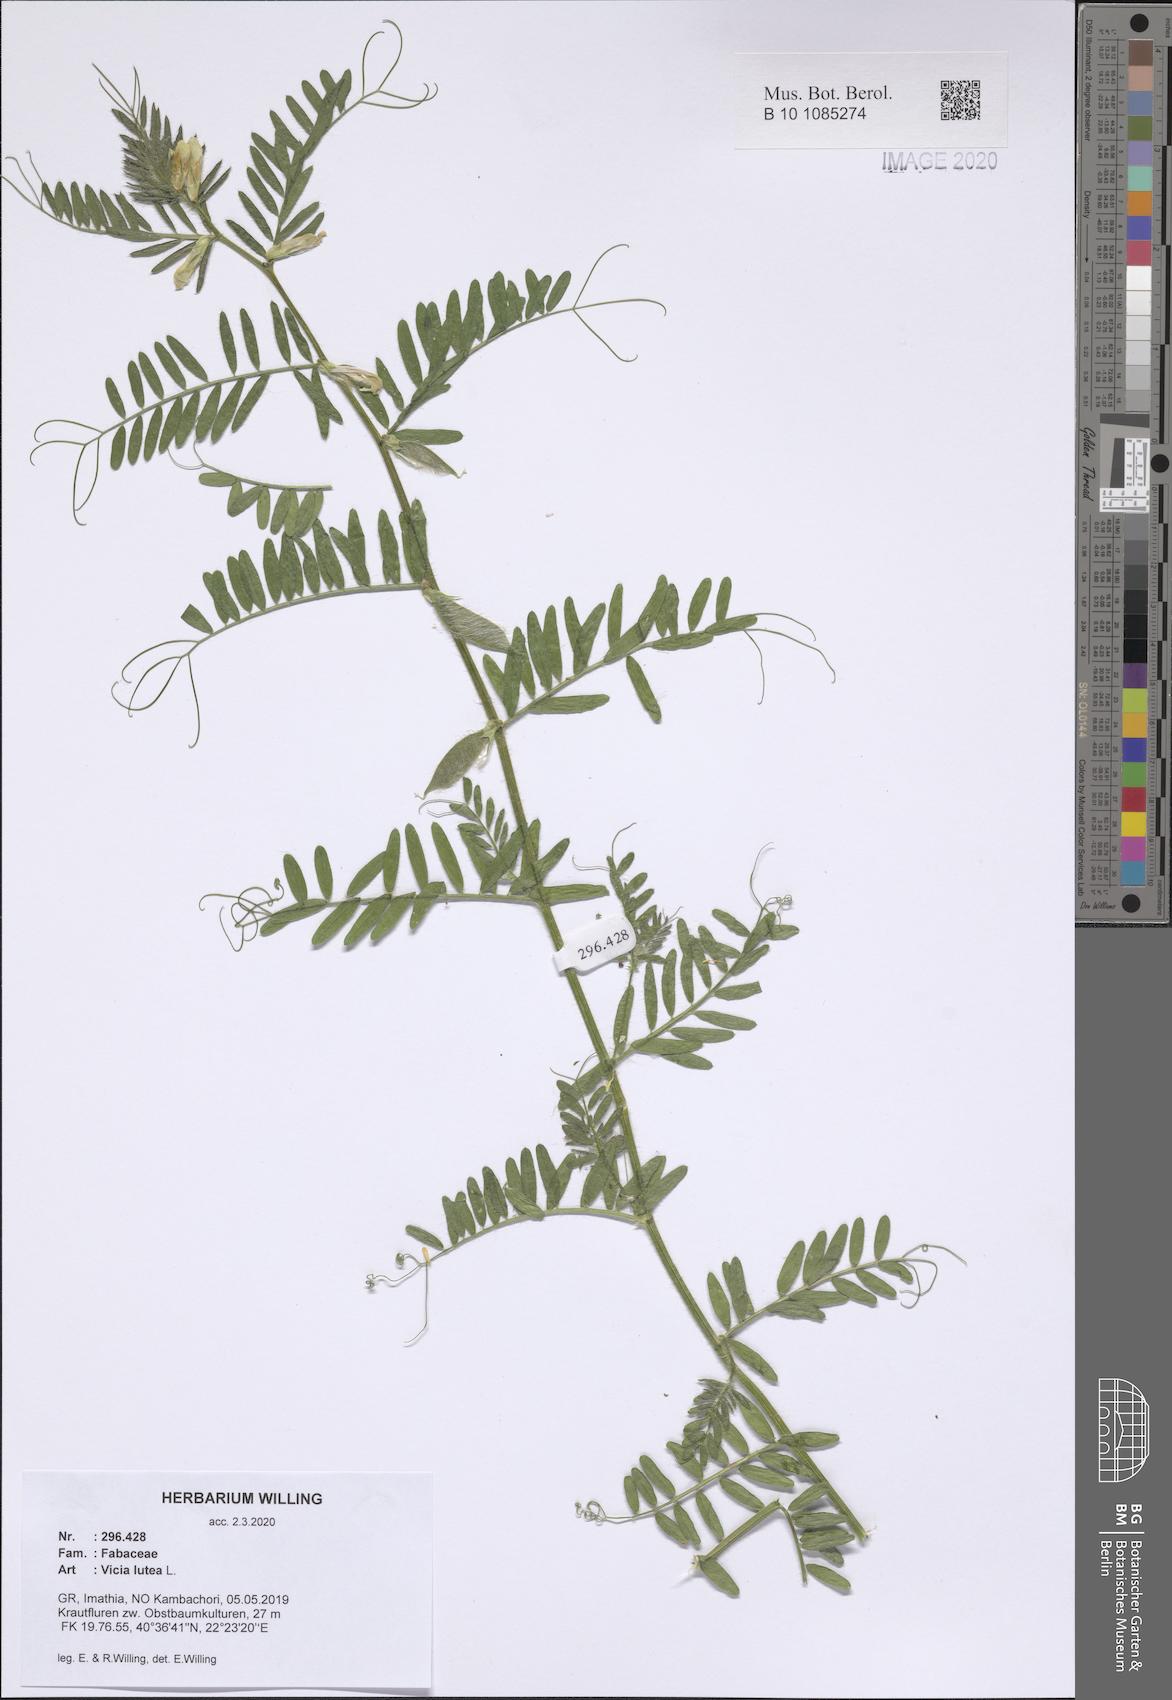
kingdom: Plantae
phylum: Tracheophyta
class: Magnoliopsida
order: Fabales
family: Fabaceae
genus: Vicia
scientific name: Vicia lutea
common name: Smooth yellow vetch
